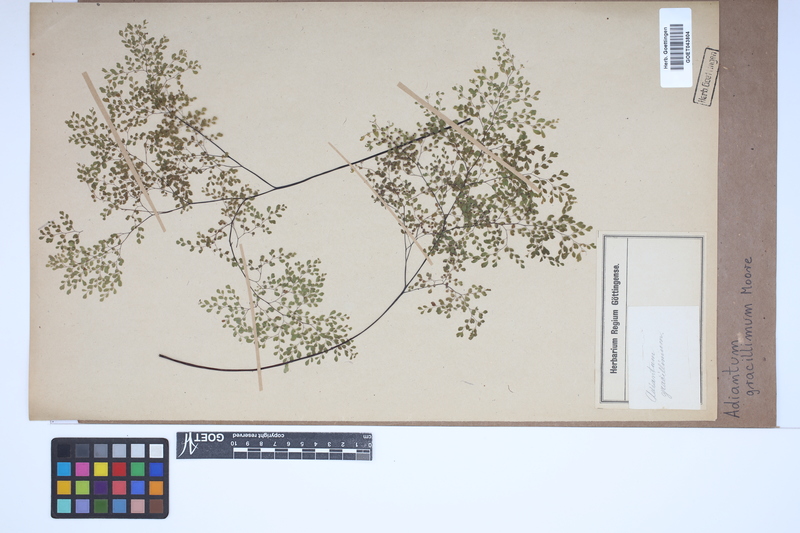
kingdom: Plantae
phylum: Tracheophyta
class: Polypodiopsida
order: Polypodiales
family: Pteridaceae
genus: Adiantum
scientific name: Adiantum gracillimum
